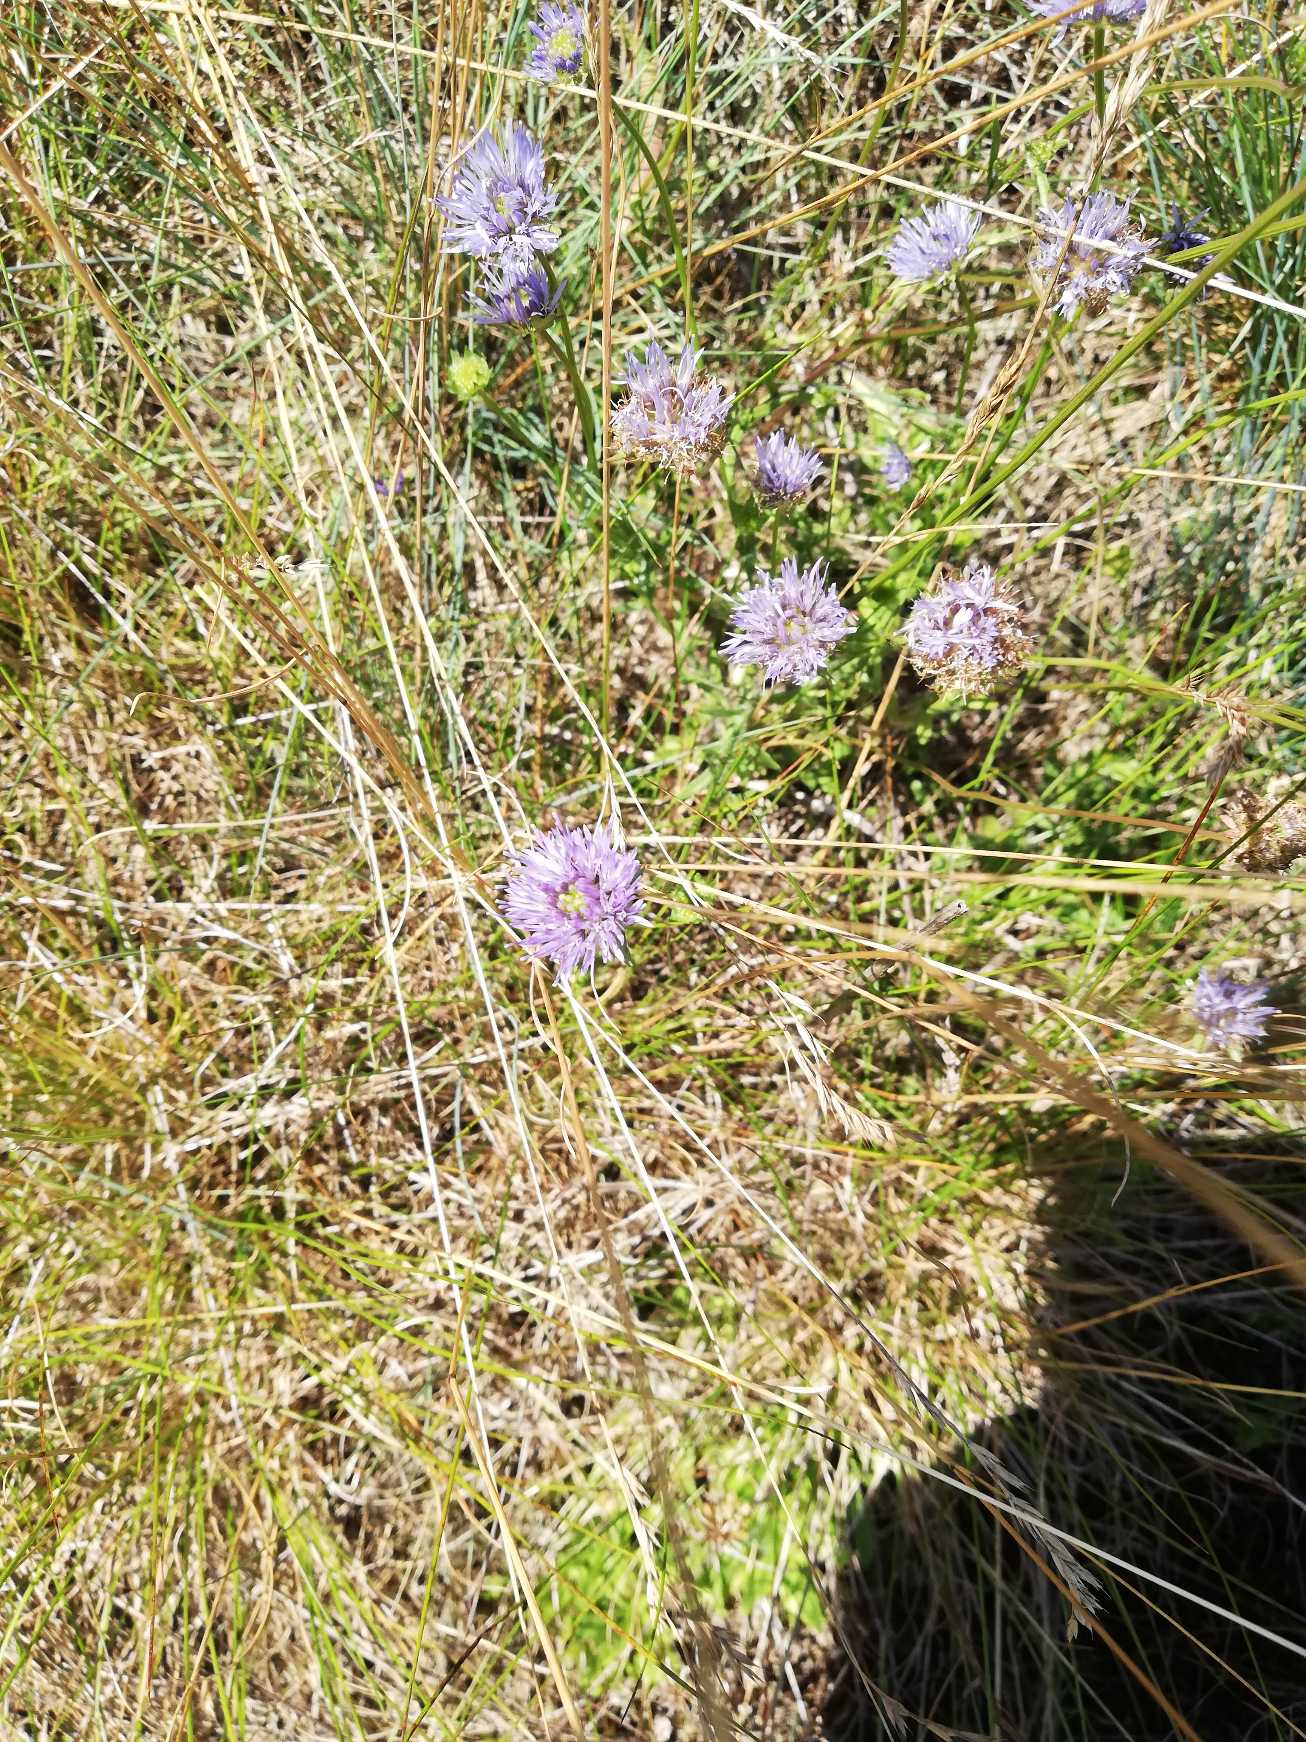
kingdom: Plantae
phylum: Tracheophyta
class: Magnoliopsida
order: Asterales
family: Campanulaceae
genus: Jasione
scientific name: Jasione montana
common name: Blåmunke
